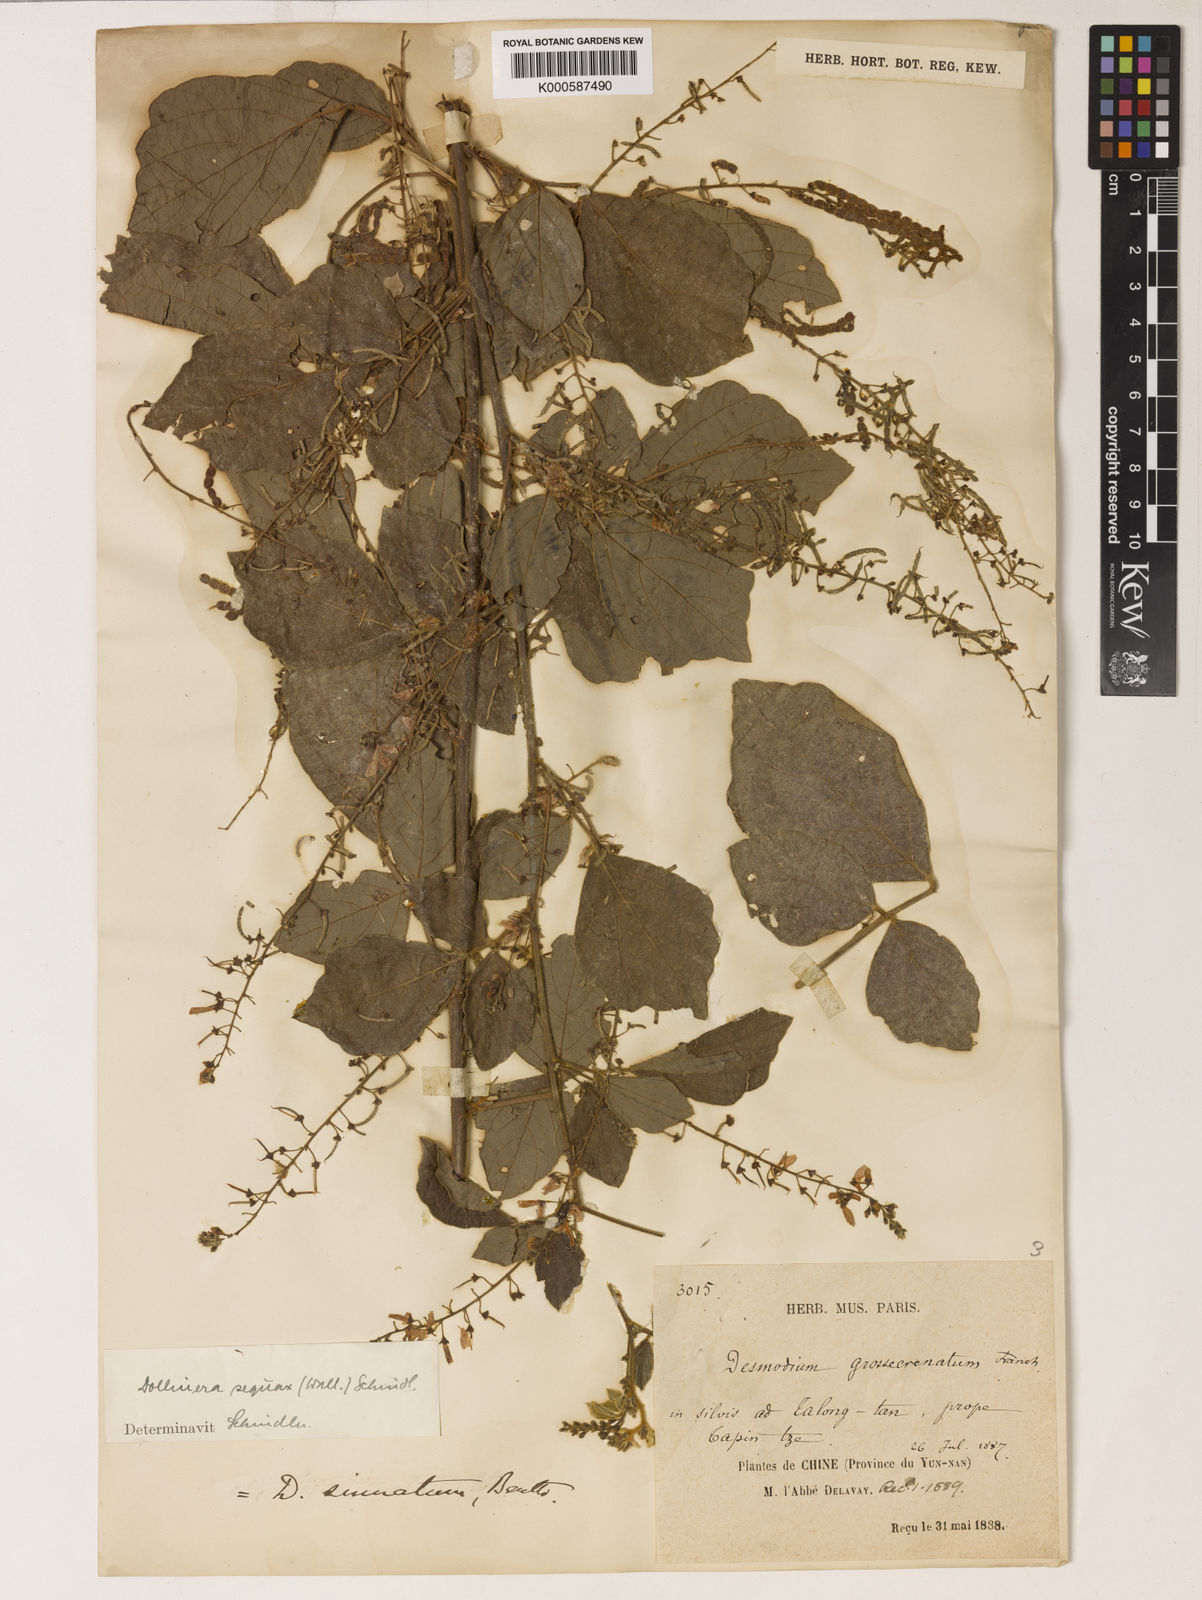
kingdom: Plantae
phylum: Tracheophyta
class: Magnoliopsida
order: Fabales
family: Fabaceae
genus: Puhuaea
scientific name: Puhuaea sequax
